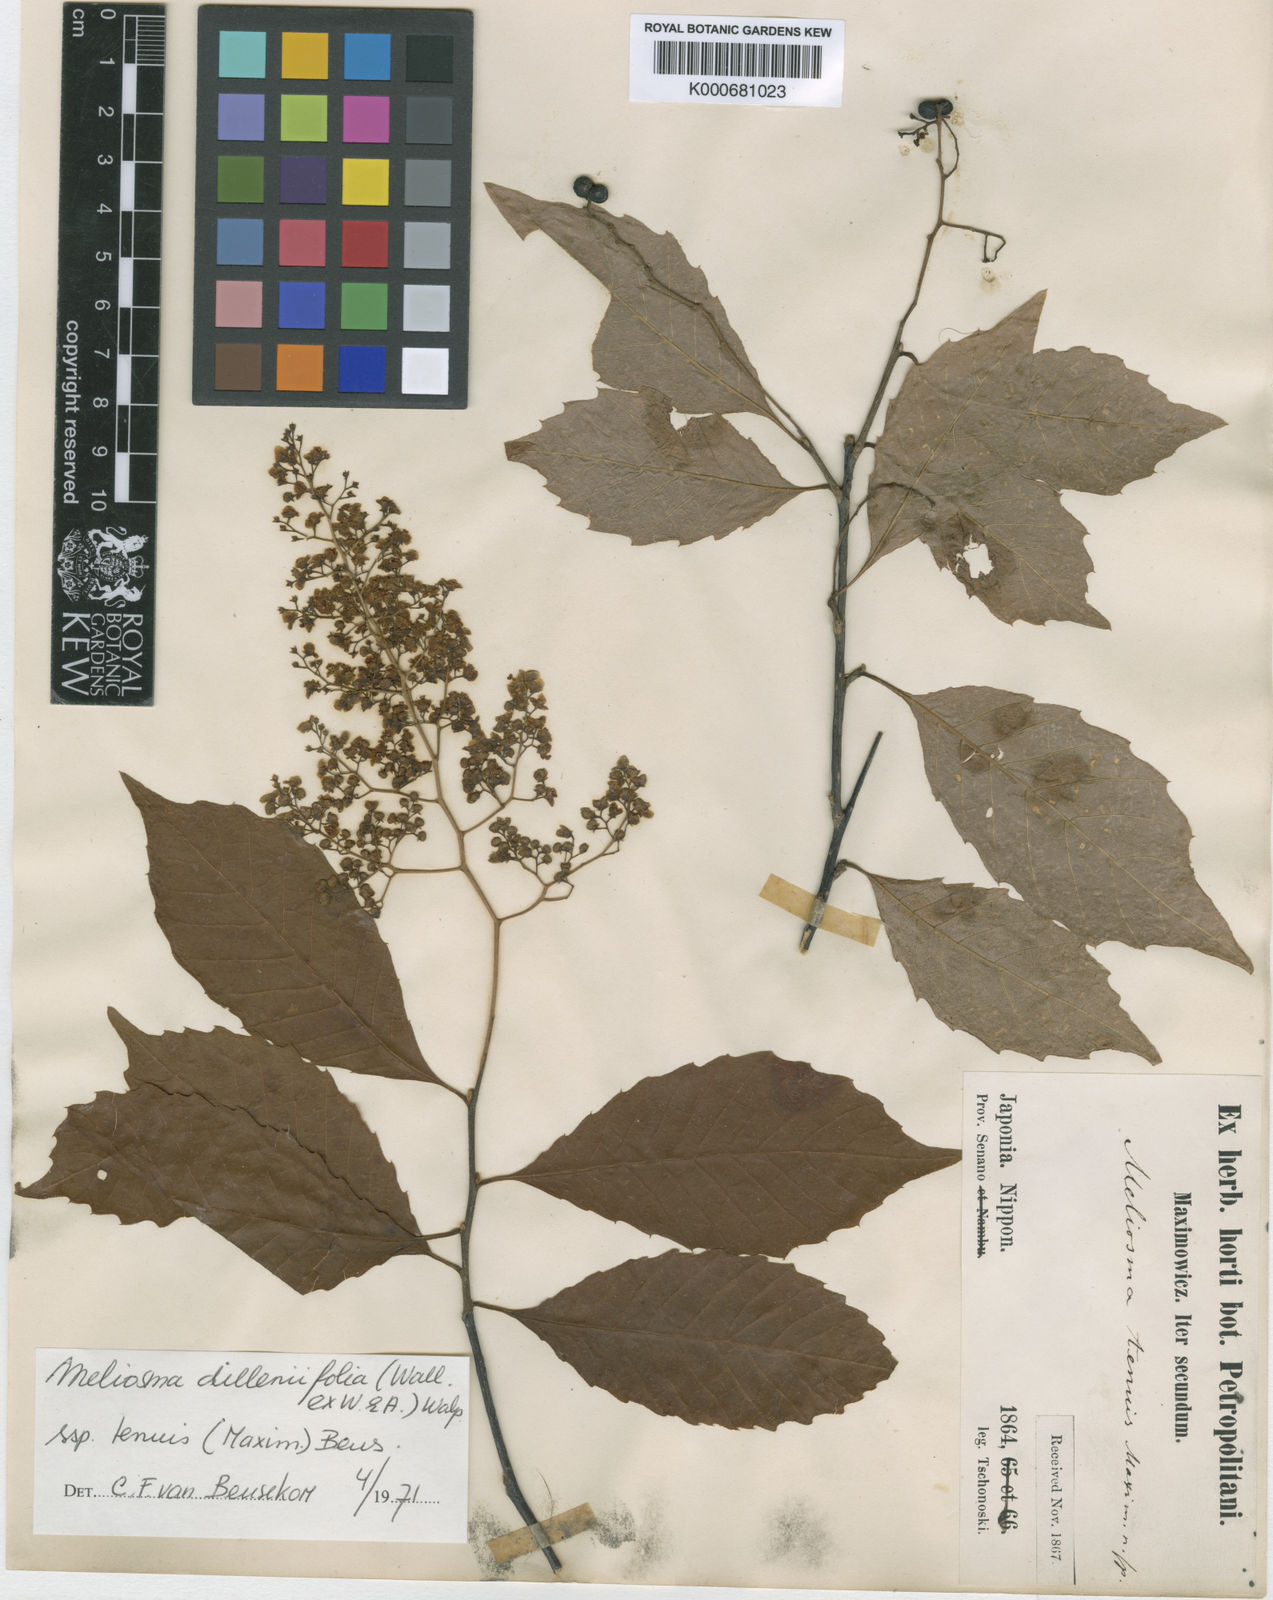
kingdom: Plantae
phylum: Tracheophyta
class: Magnoliopsida
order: Proteales
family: Sabiaceae
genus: Meliosma
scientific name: Meliosma tenuis
